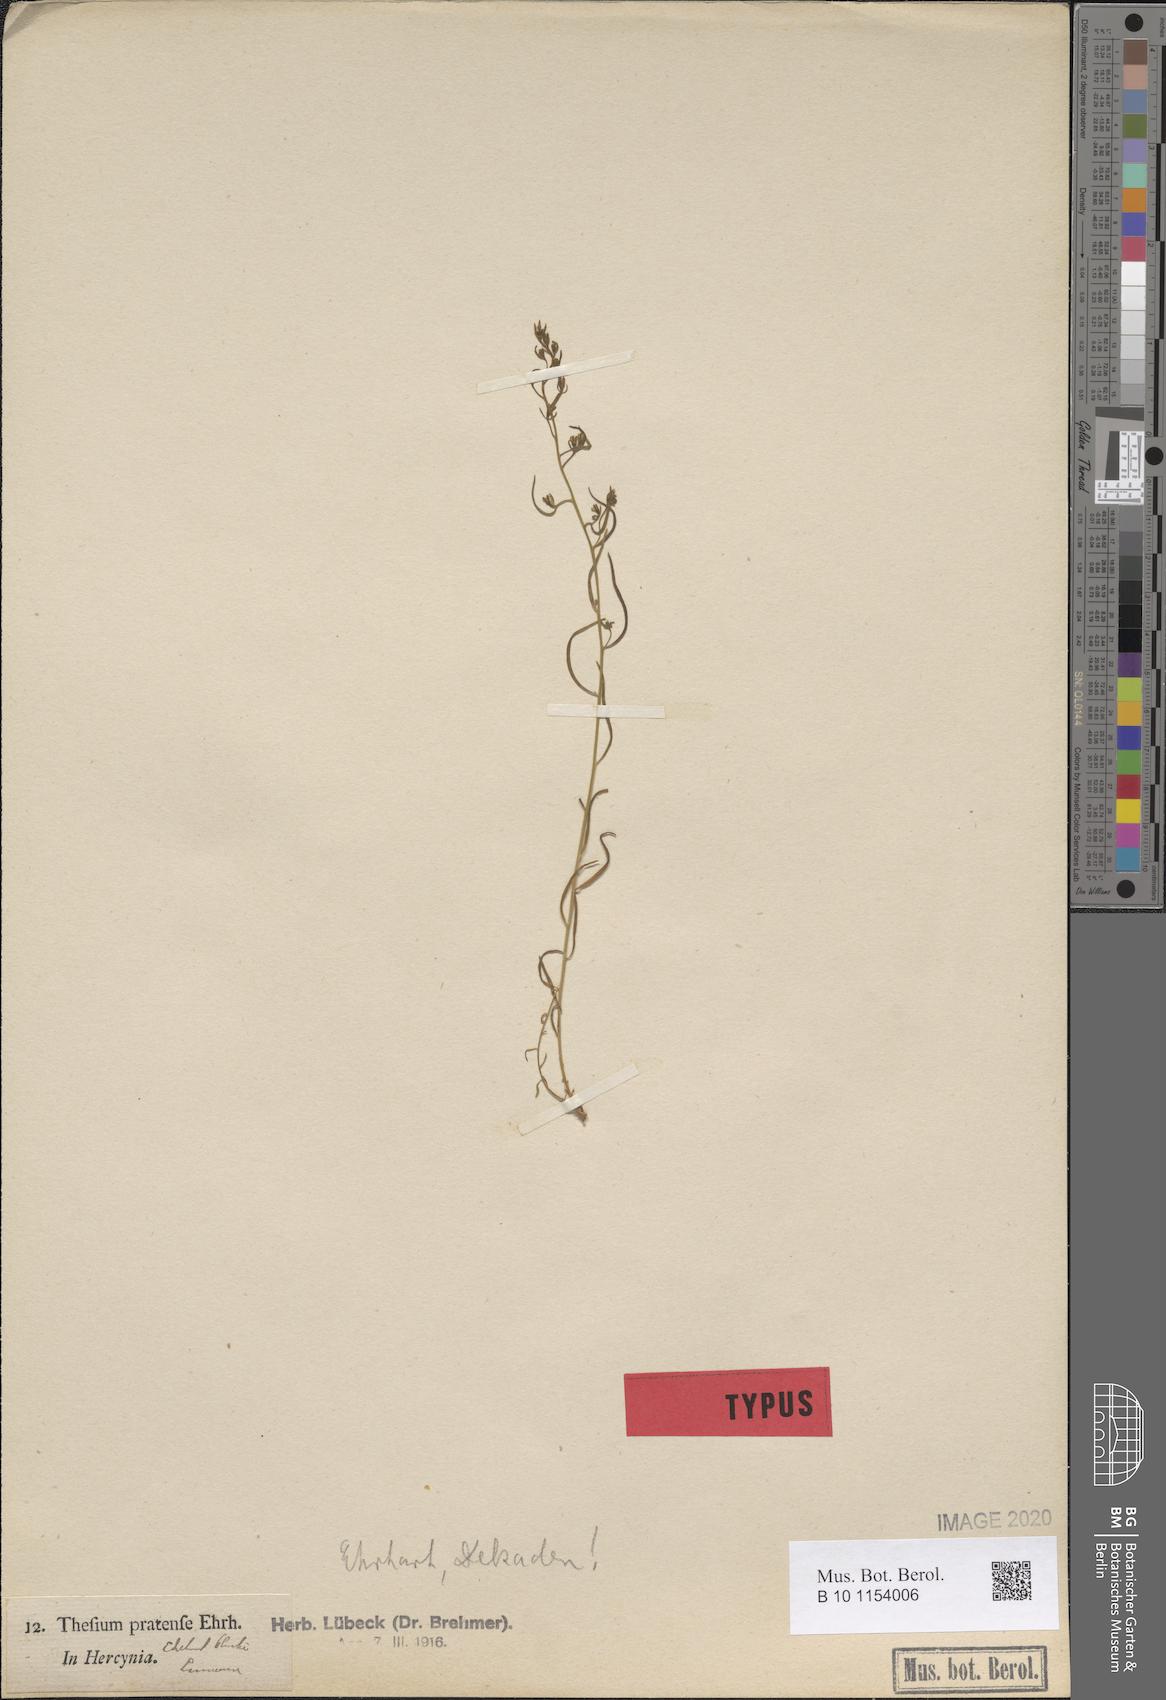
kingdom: Plantae
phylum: Tracheophyta
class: Magnoliopsida
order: Santalales
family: Thesiaceae
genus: Thesium
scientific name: Thesium pyrenaicum
